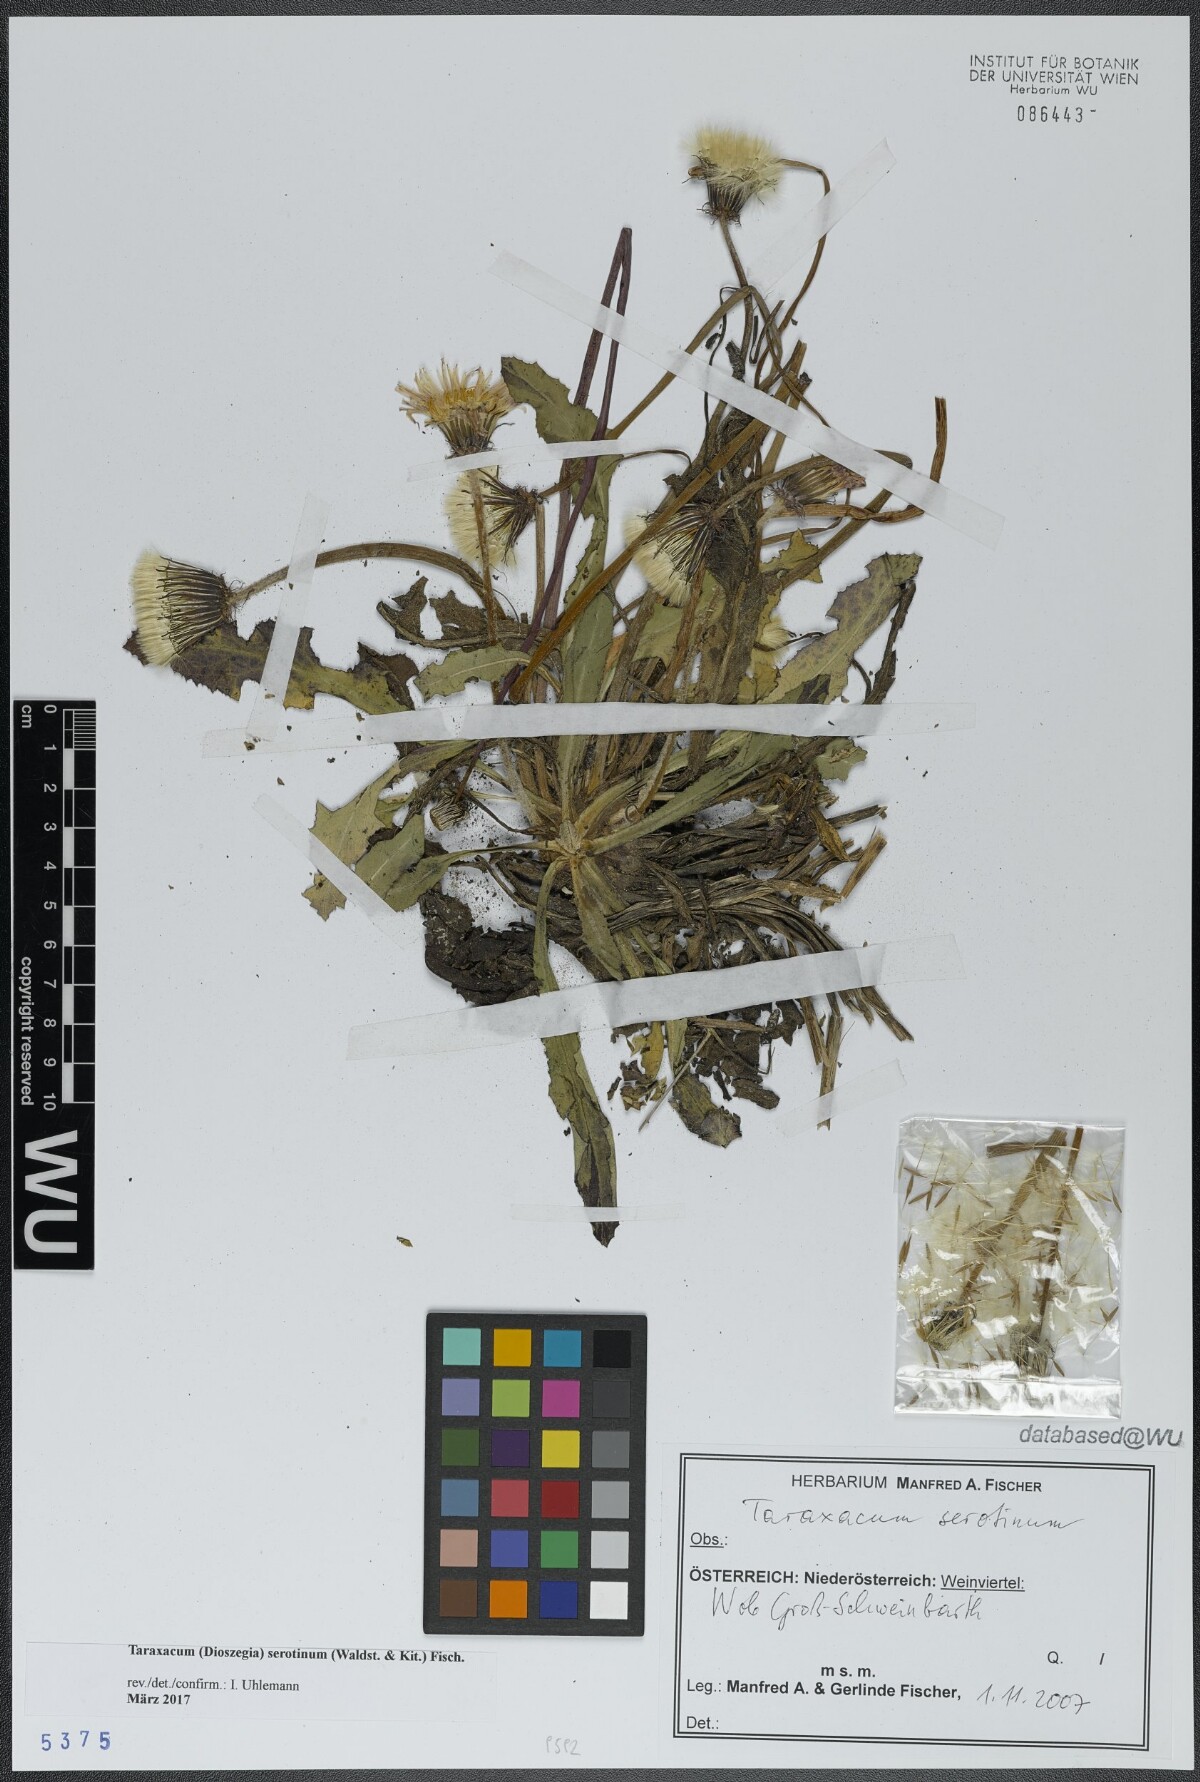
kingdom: Plantae
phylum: Tracheophyta
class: Magnoliopsida
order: Asterales
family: Asteraceae
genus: Taraxacum
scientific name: Taraxacum serotinum
